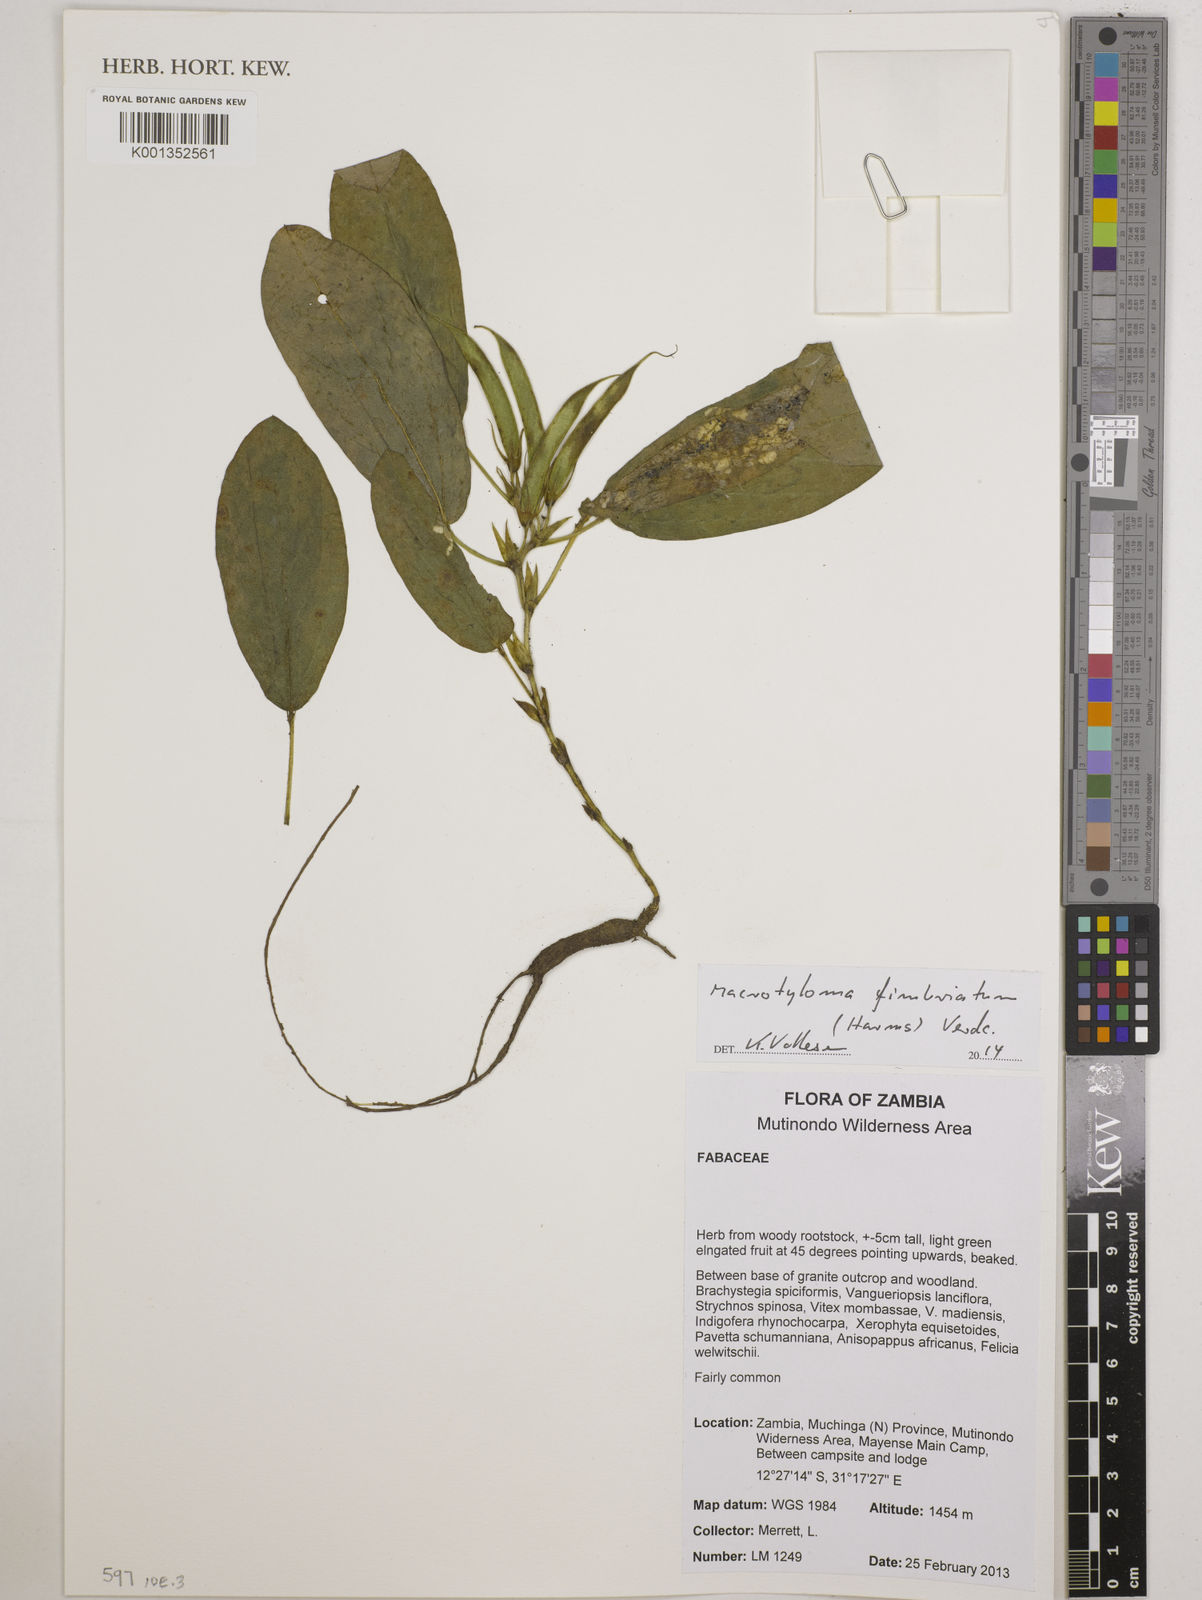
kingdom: Plantae
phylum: Tracheophyta
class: Magnoliopsida
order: Fabales
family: Fabaceae
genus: Macrotyloma
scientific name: Macrotyloma fimbriatum
